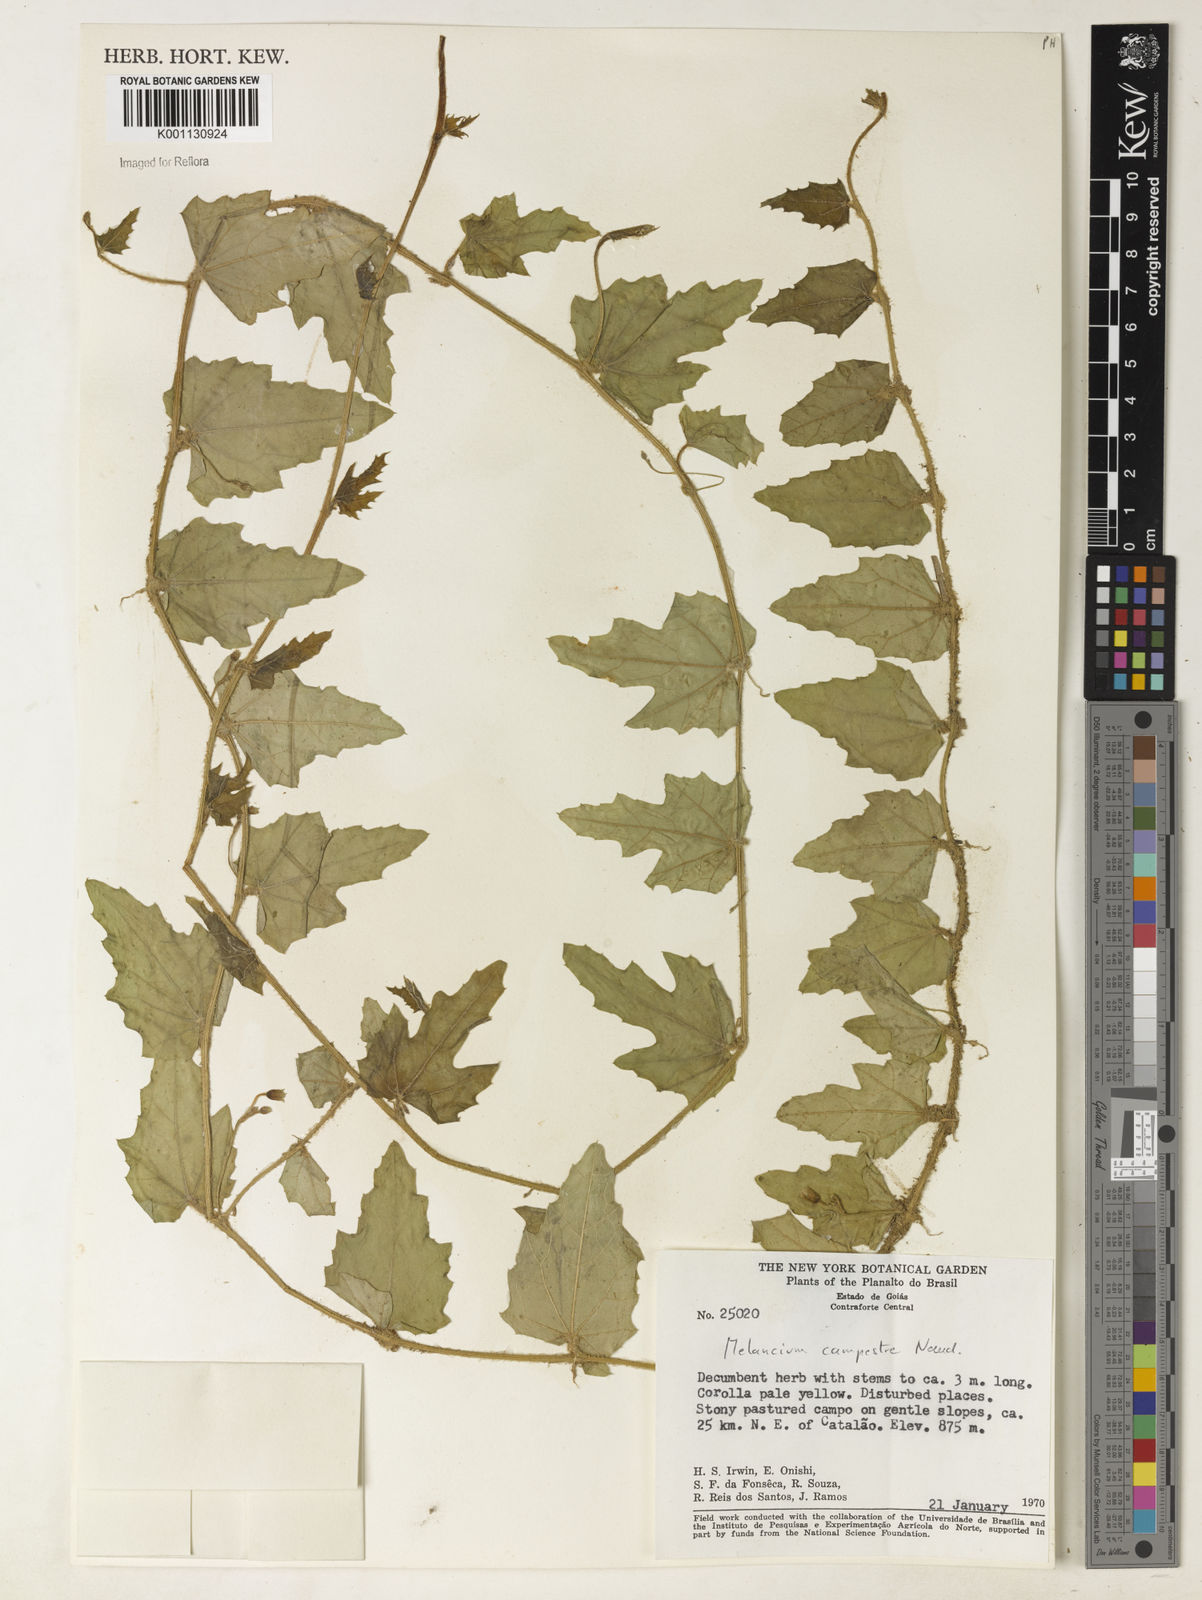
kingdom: Plantae
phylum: Tracheophyta
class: Magnoliopsida
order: Cucurbitales
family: Cucurbitaceae
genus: Melothria
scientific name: Melothria campestris
